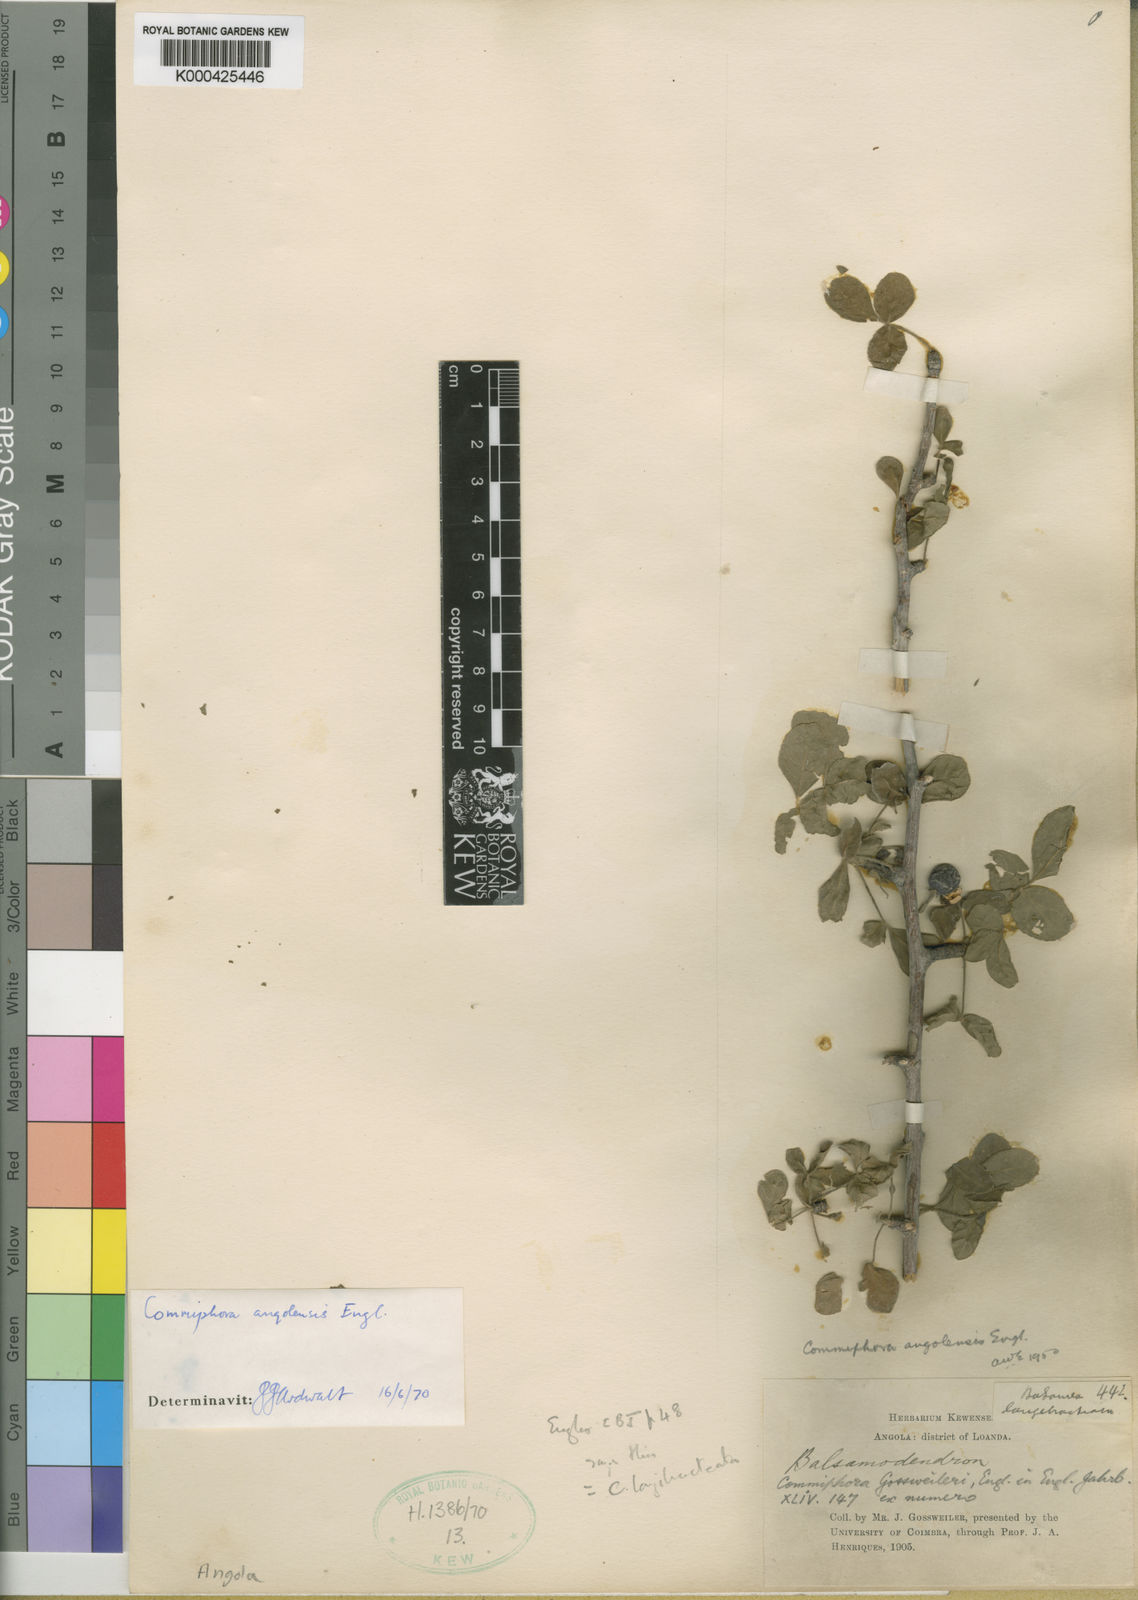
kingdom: Plantae
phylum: Tracheophyta
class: Magnoliopsida
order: Sapindales
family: Burseraceae
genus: Commiphora
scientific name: Commiphora angolensis
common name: Poison-grub
